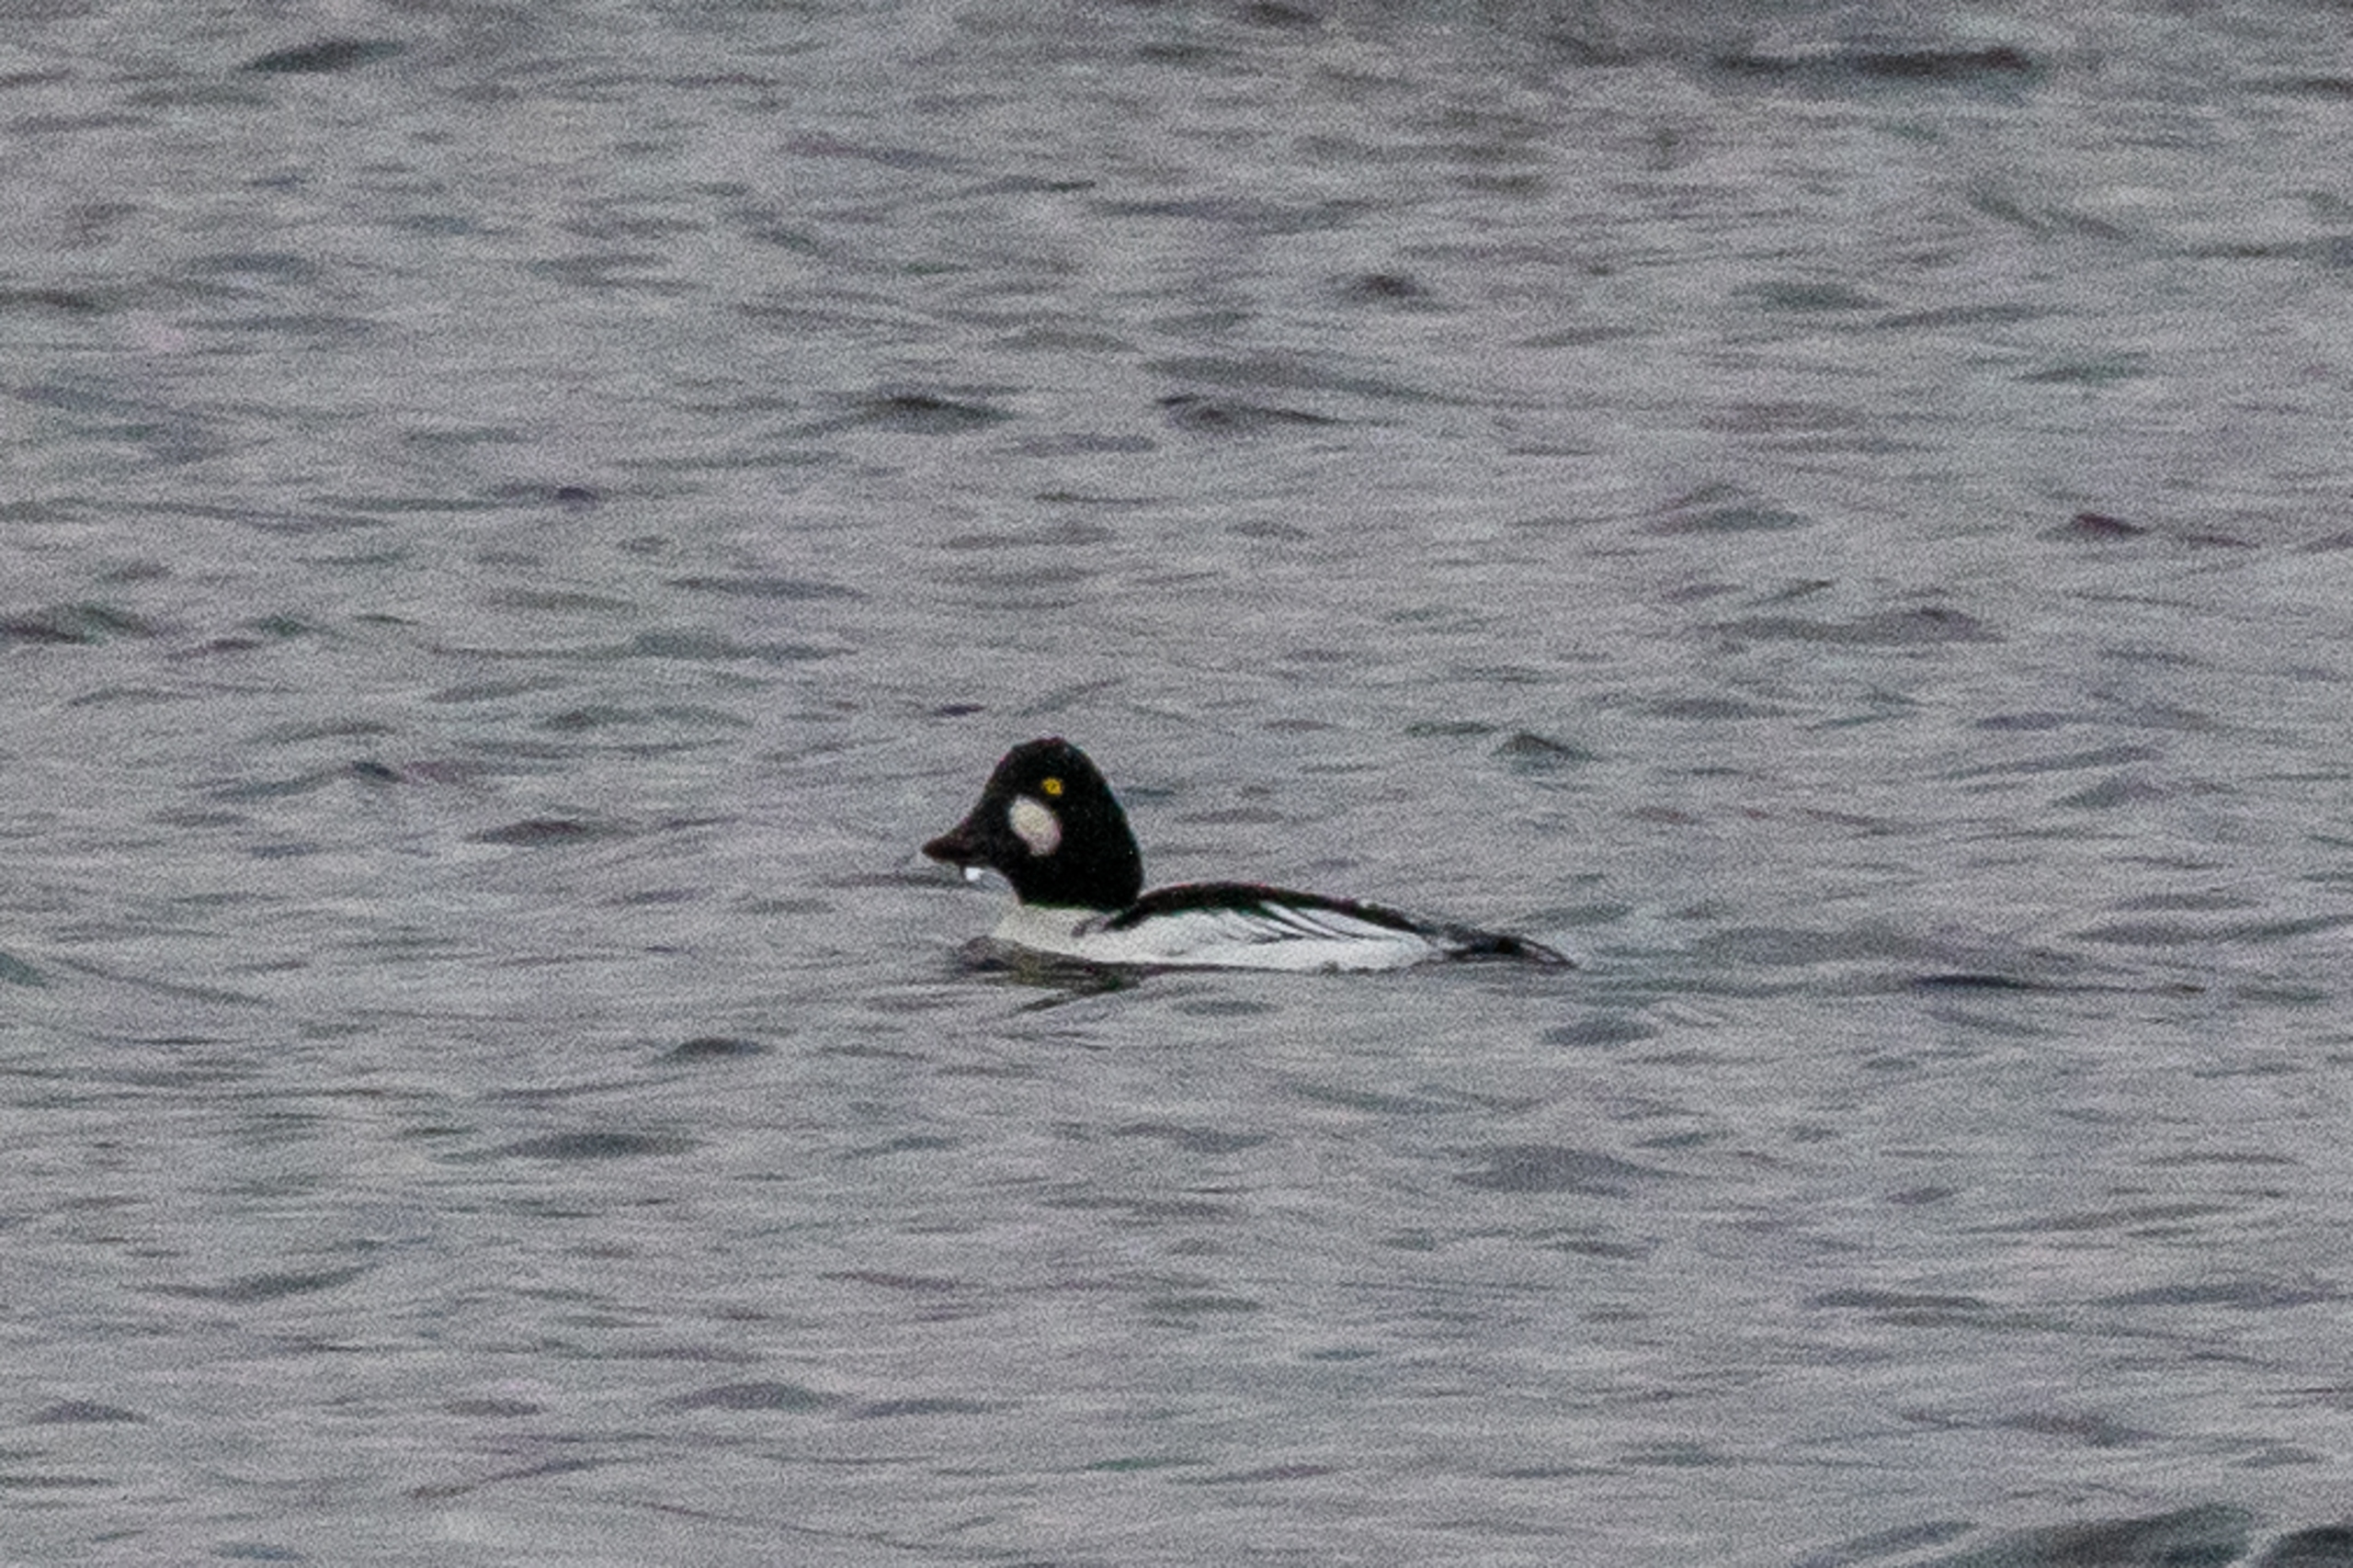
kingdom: Animalia
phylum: Chordata
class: Aves
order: Anseriformes
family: Anatidae
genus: Bucephala
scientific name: Bucephala clangula
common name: Hvinand
